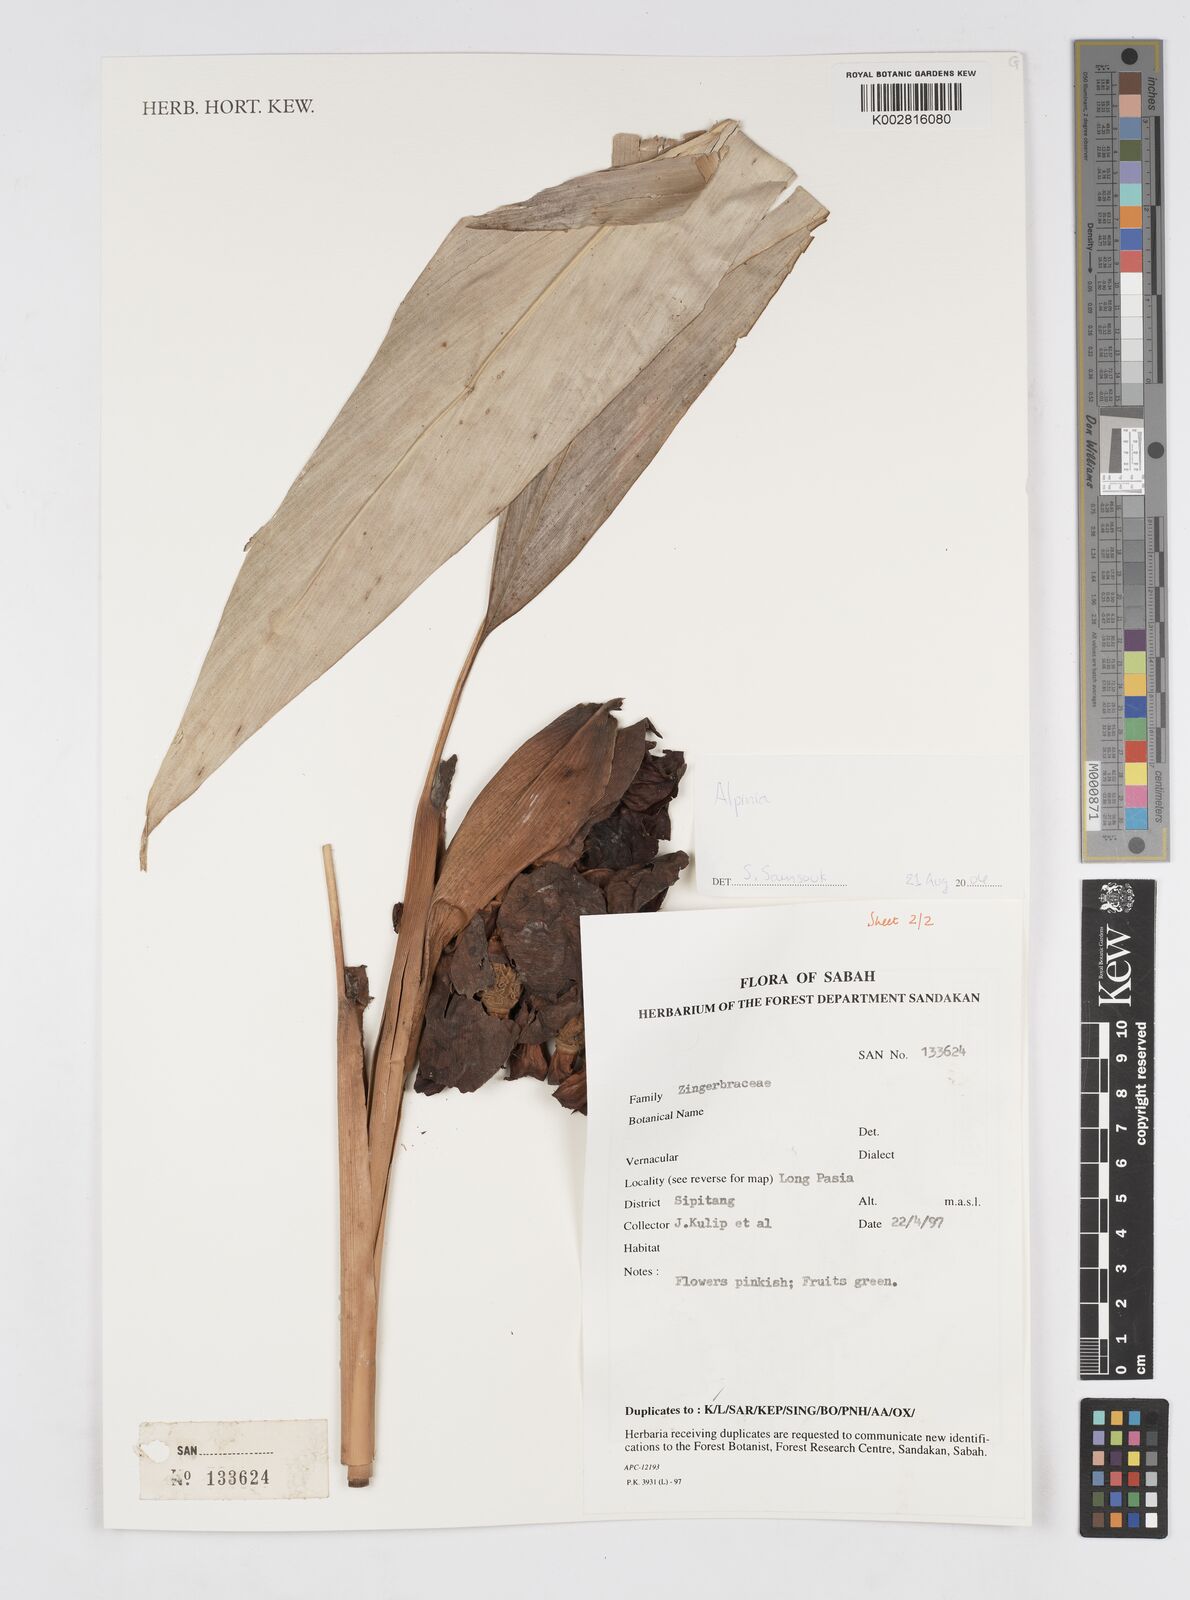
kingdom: Plantae
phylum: Tracheophyta
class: Liliopsida
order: Zingiberales
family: Zingiberaceae
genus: Alpinia
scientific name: Alpinia
